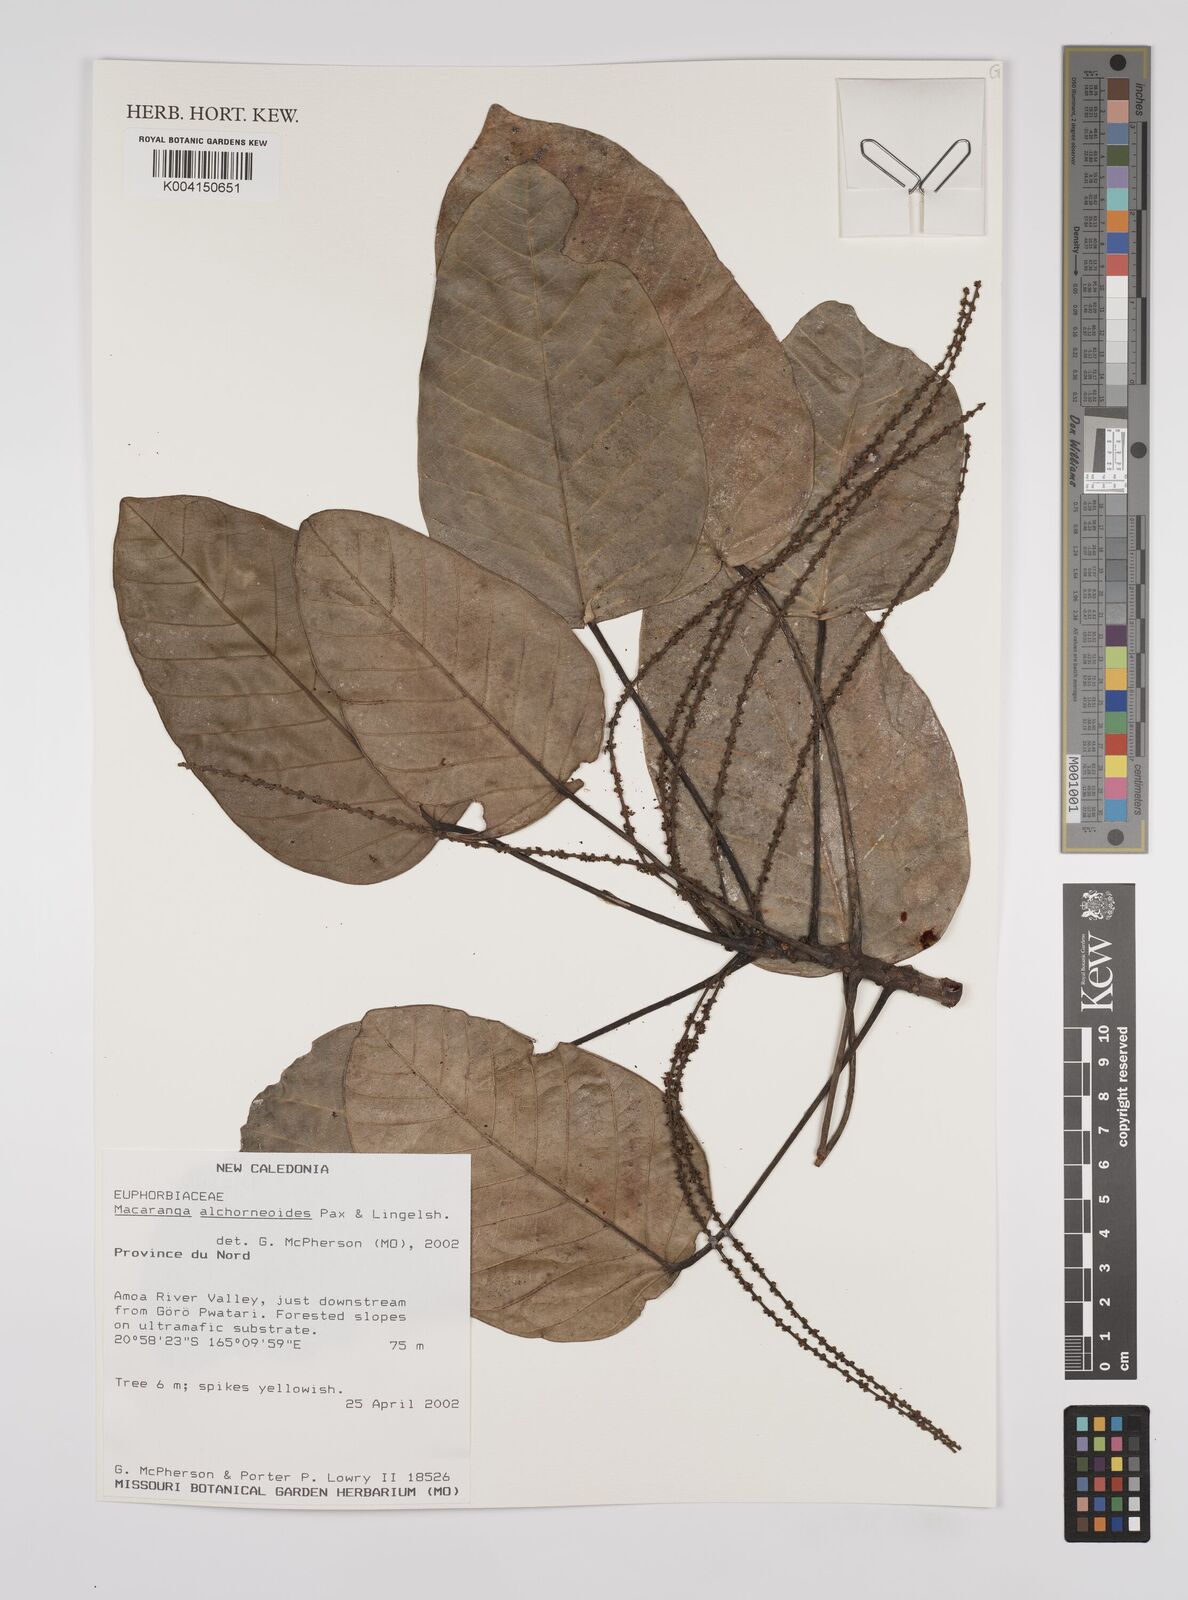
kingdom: Plantae
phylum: Tracheophyta
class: Magnoliopsida
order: Malpighiales
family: Euphorbiaceae
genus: Macaranga
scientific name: Macaranga alchorneoides
